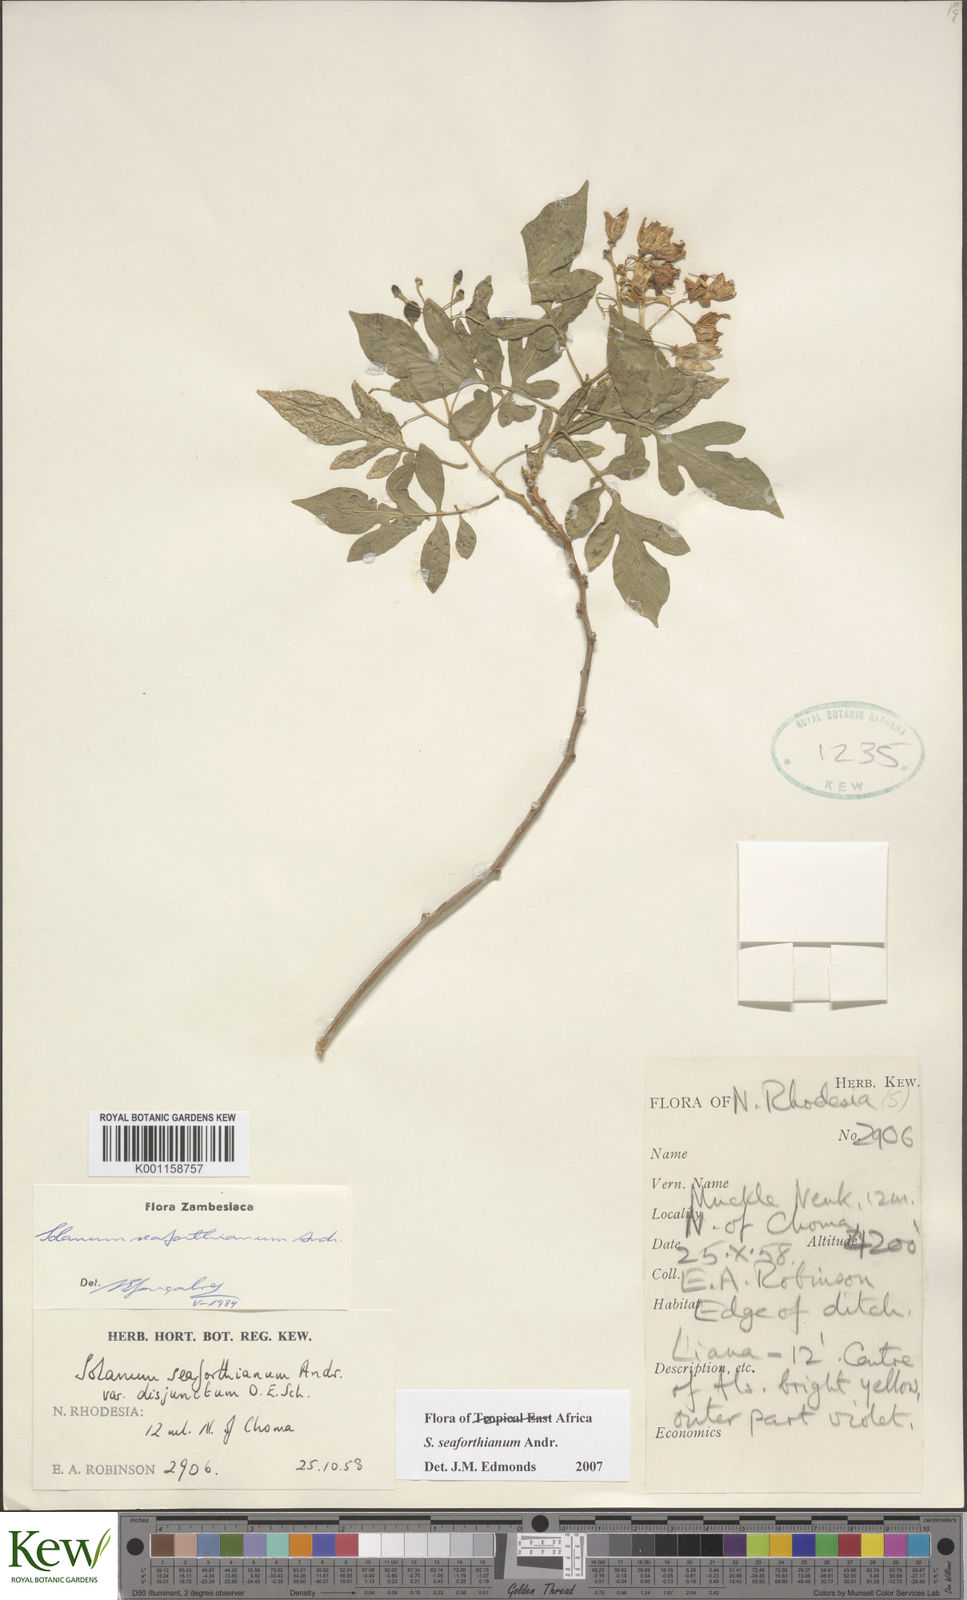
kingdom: Plantae
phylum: Tracheophyta
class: Magnoliopsida
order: Solanales
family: Solanaceae
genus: Solanum
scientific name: Solanum seaforthianum
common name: Brazilian nightshade
